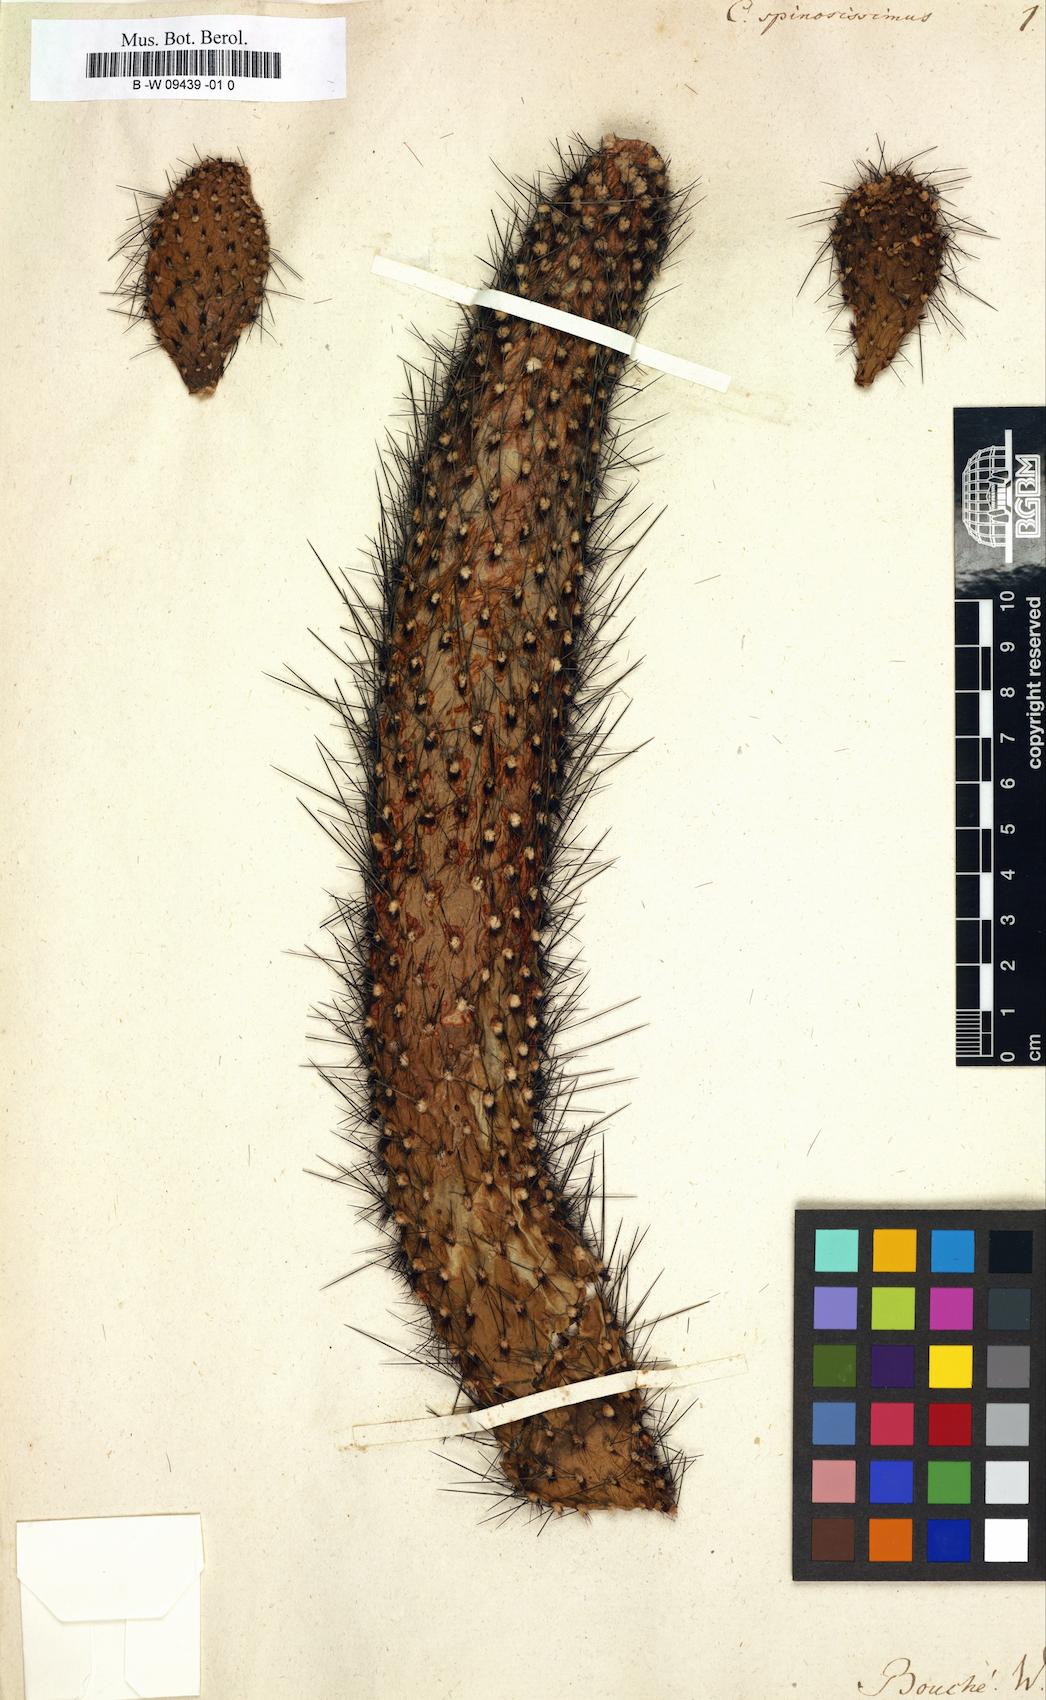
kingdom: Plantae
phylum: Tracheophyta
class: Magnoliopsida
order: Caryophyllales
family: Cactaceae
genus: Mammillaria
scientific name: Mammillaria spinosissima
